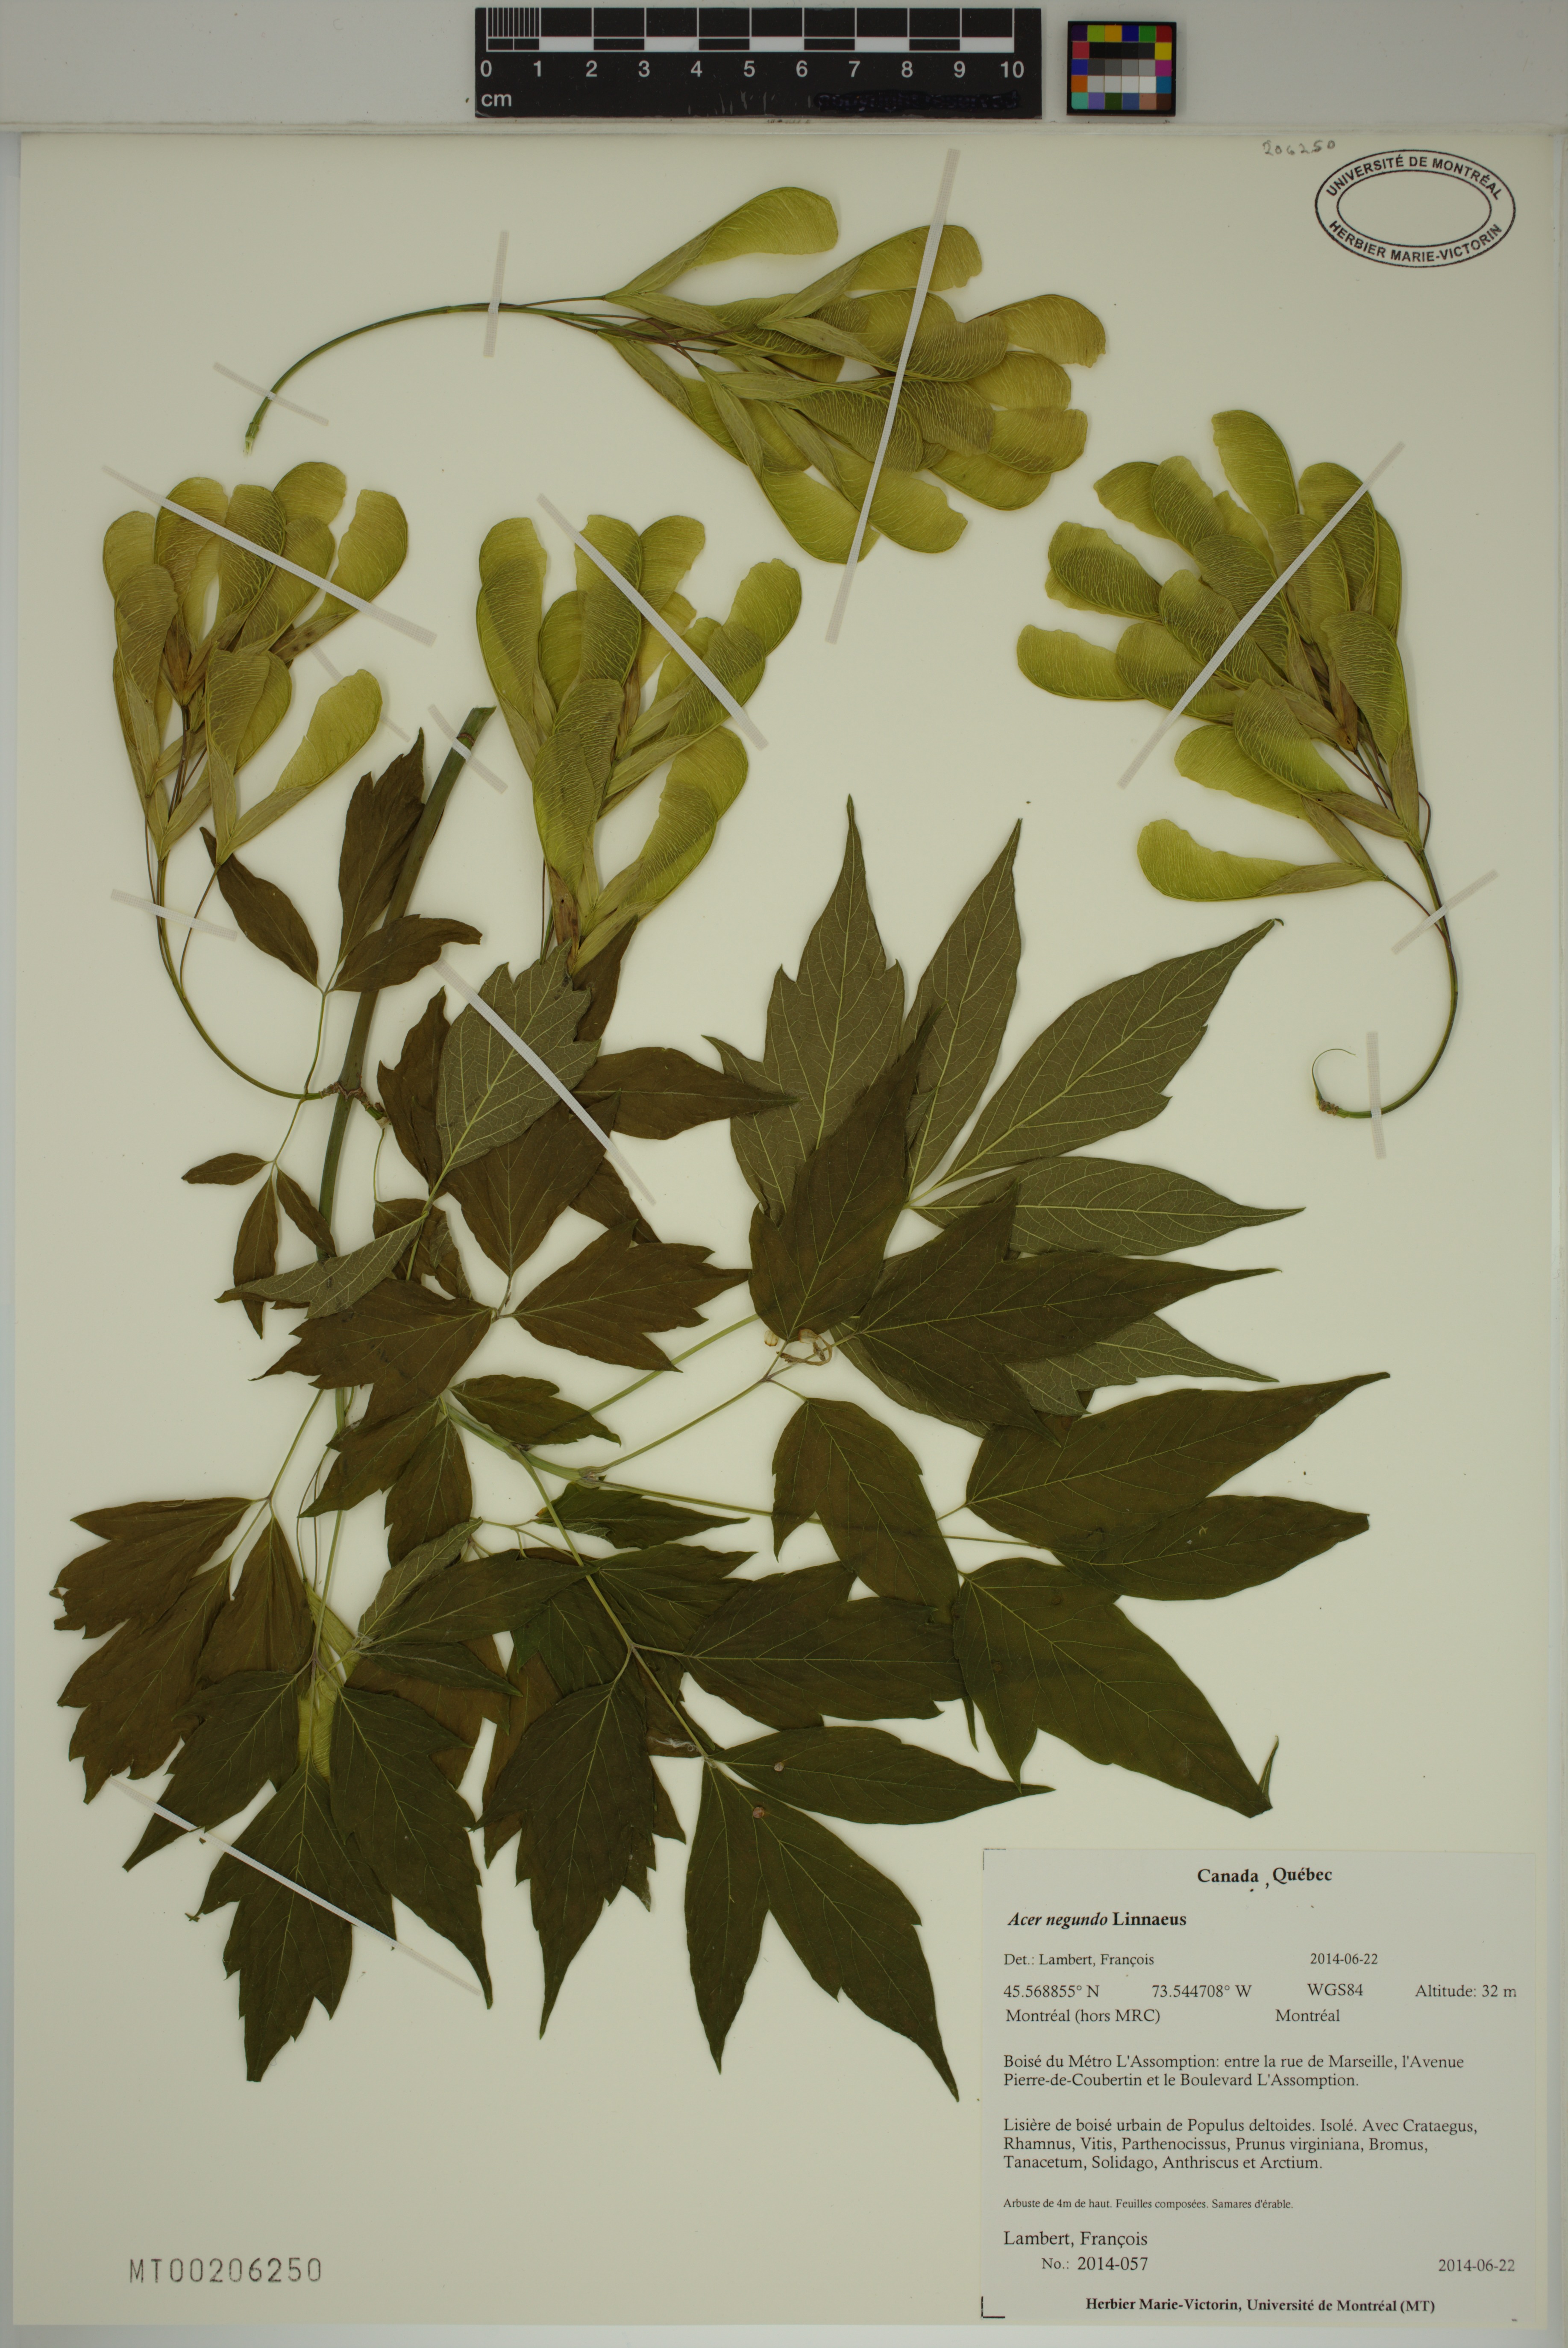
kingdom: Plantae
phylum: Tracheophyta
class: Magnoliopsida
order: Sapindales
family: Sapindaceae
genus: Acer
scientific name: Acer negundo
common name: Ashleaf maple
